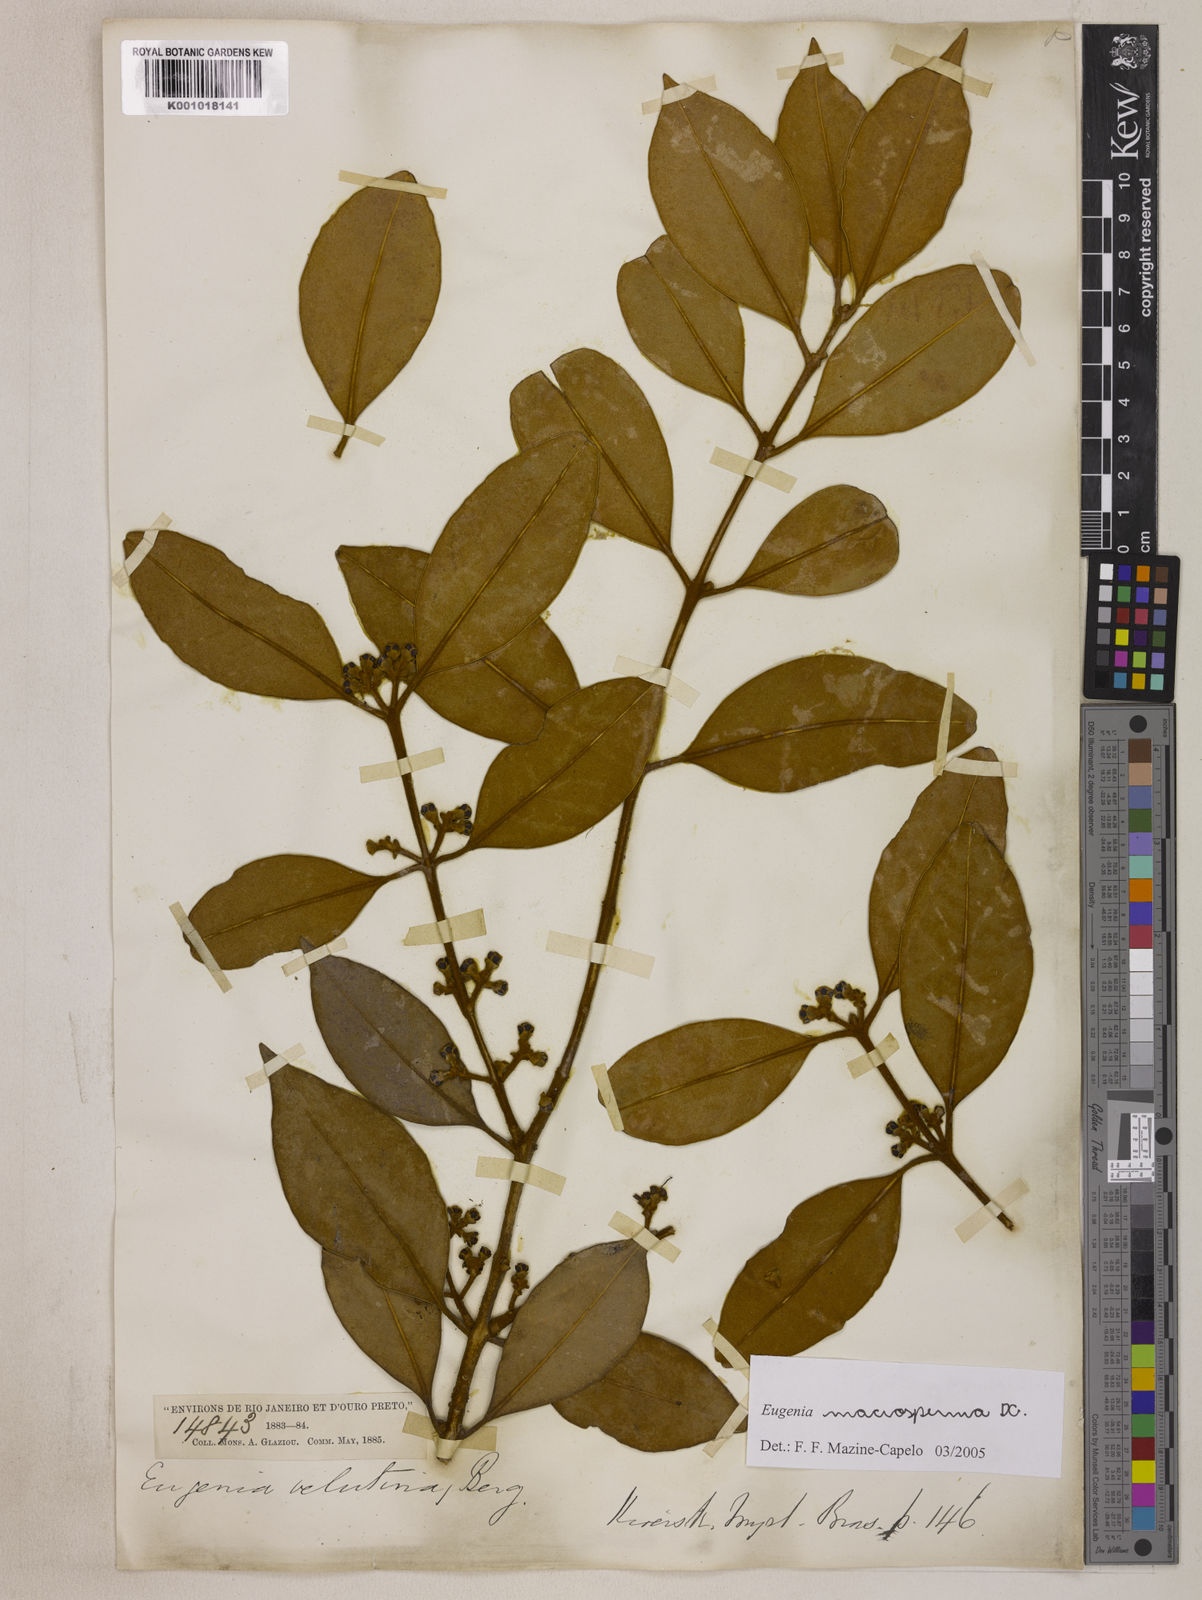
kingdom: Plantae
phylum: Tracheophyta
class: Magnoliopsida
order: Myrtales
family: Myrtaceae
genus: Eugenia
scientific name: Eugenia macrosperma
